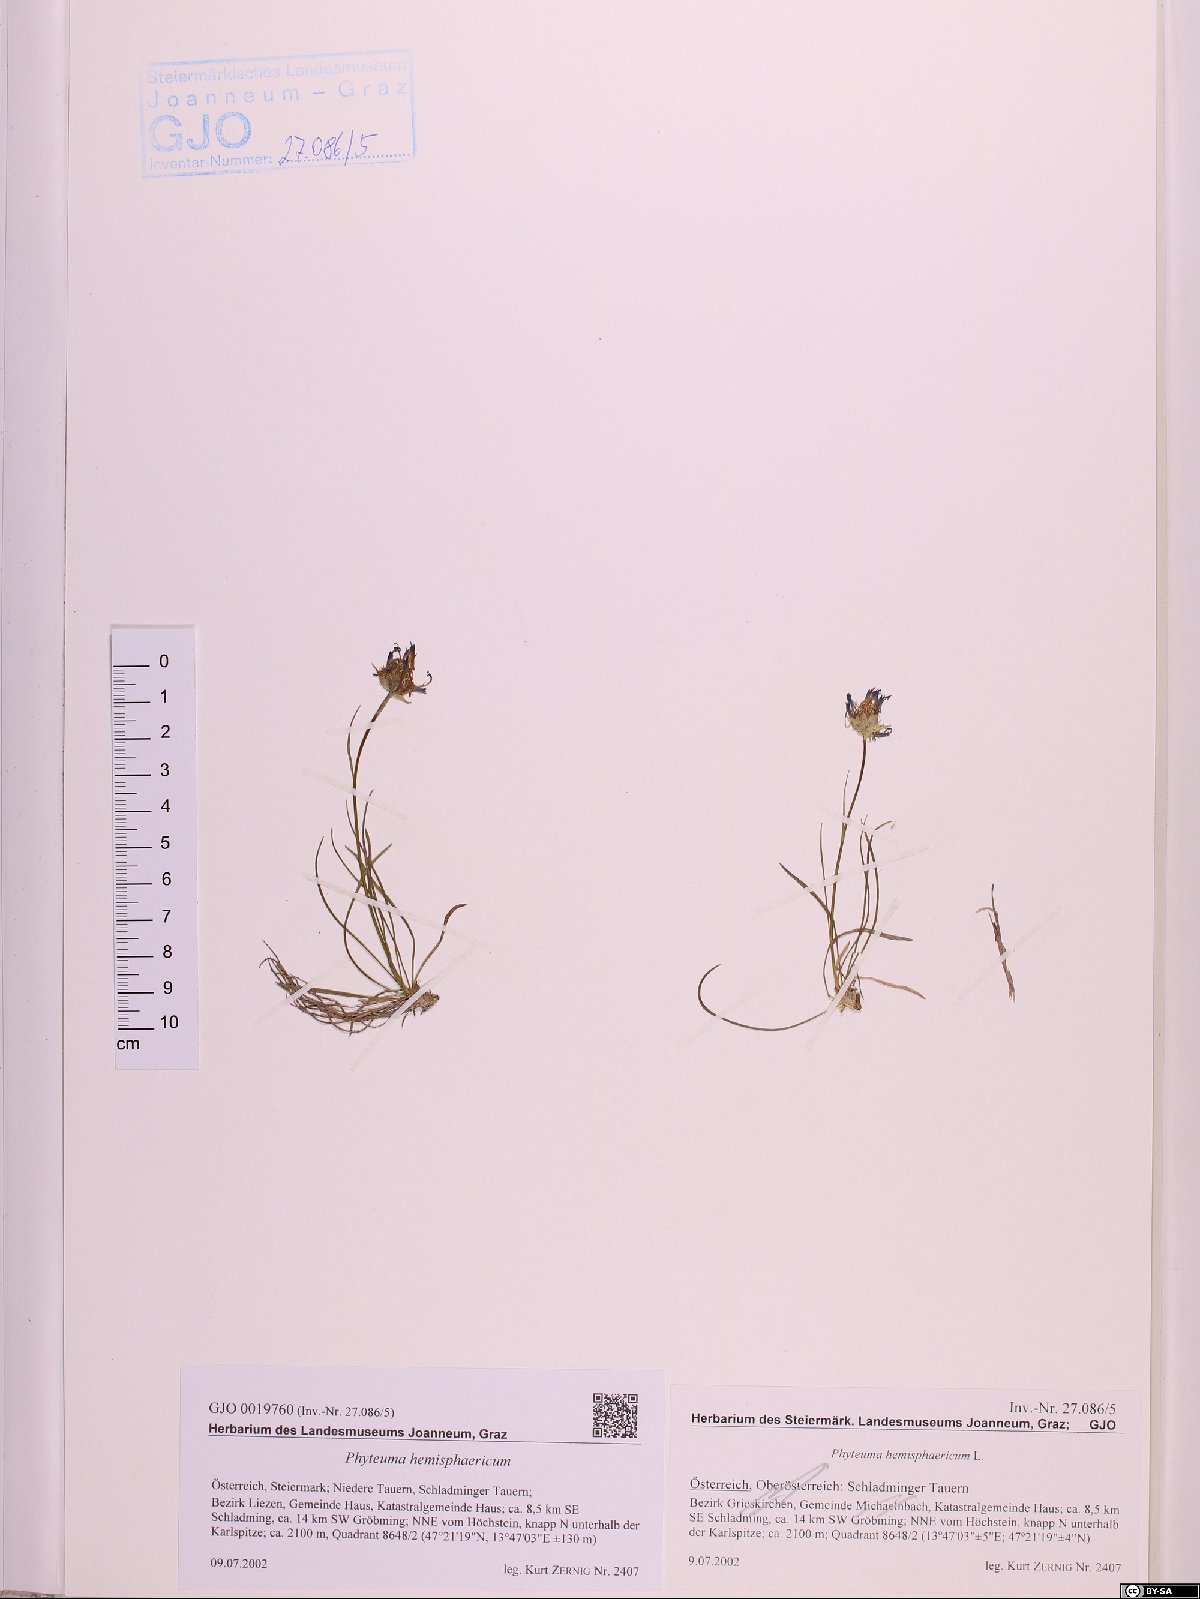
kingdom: Plantae
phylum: Tracheophyta
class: Magnoliopsida
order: Asterales
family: Campanulaceae
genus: Phyteuma
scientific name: Phyteuma hemisphaericum
